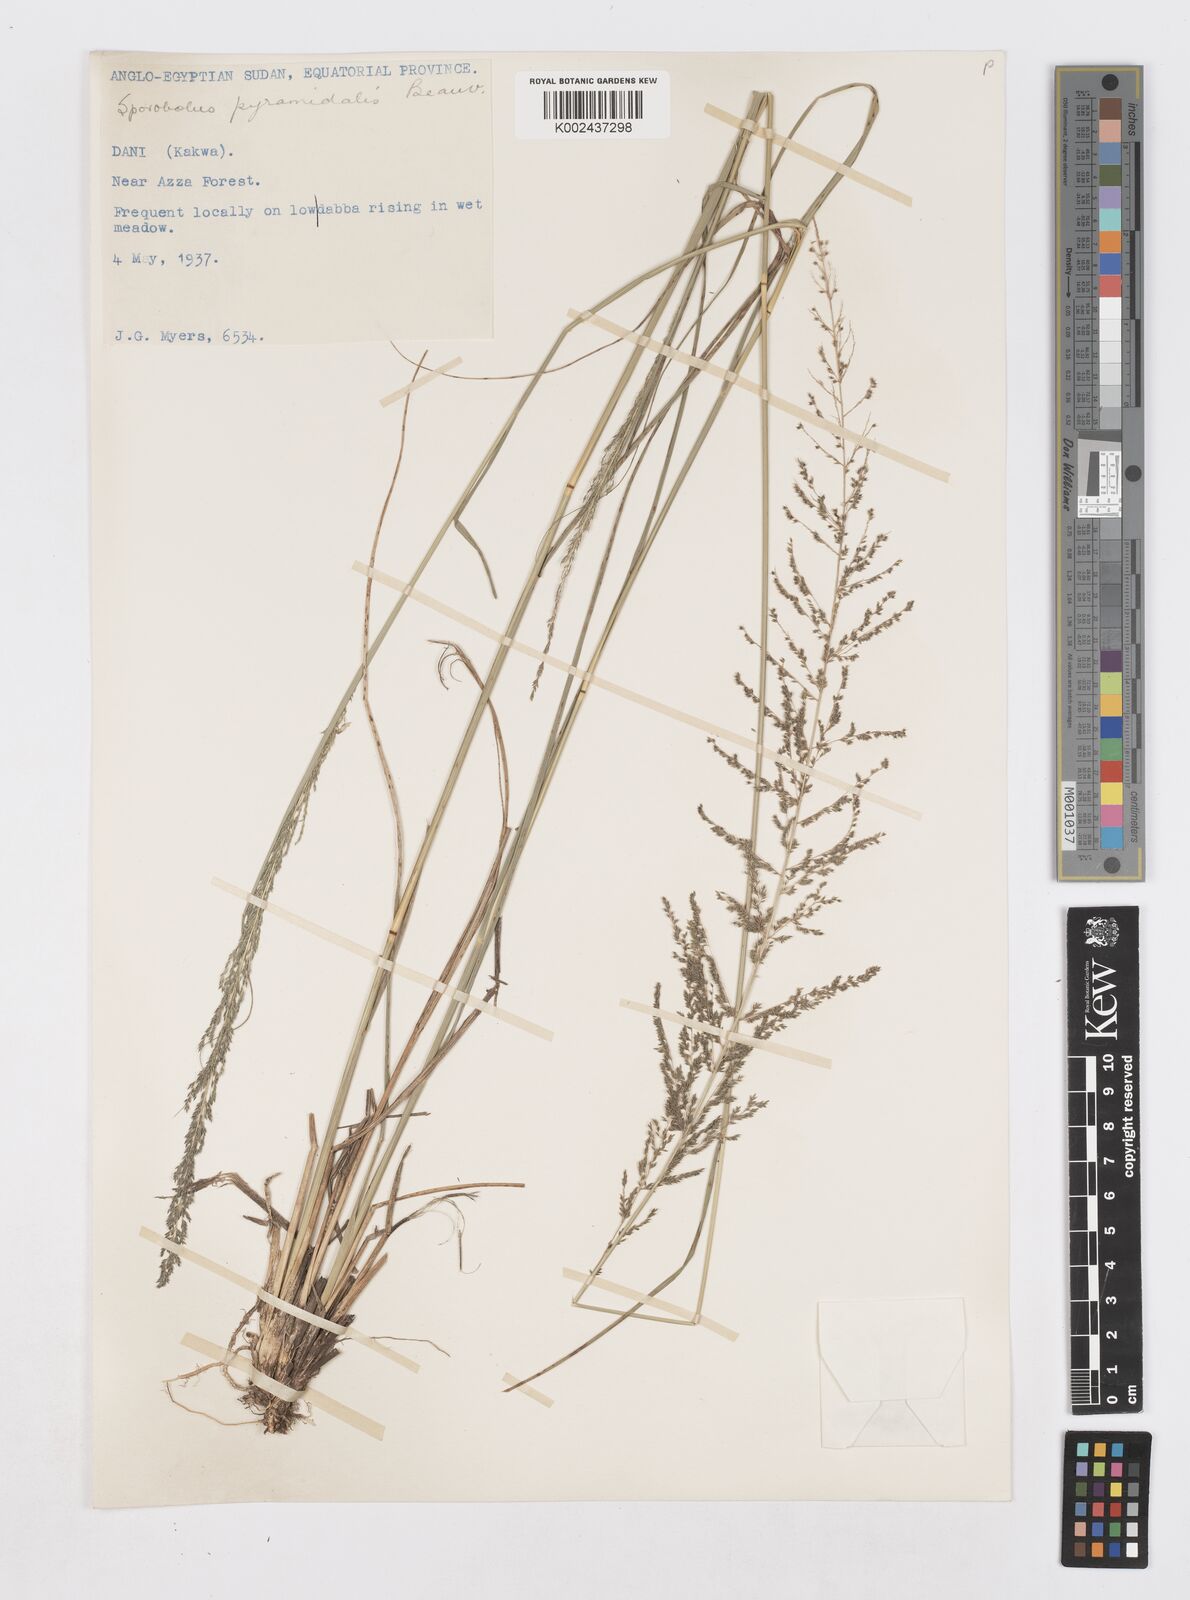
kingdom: Plantae
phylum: Tracheophyta
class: Liliopsida
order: Poales
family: Poaceae
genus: Sporobolus
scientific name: Sporobolus pyramidalis
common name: West indian dropseed
